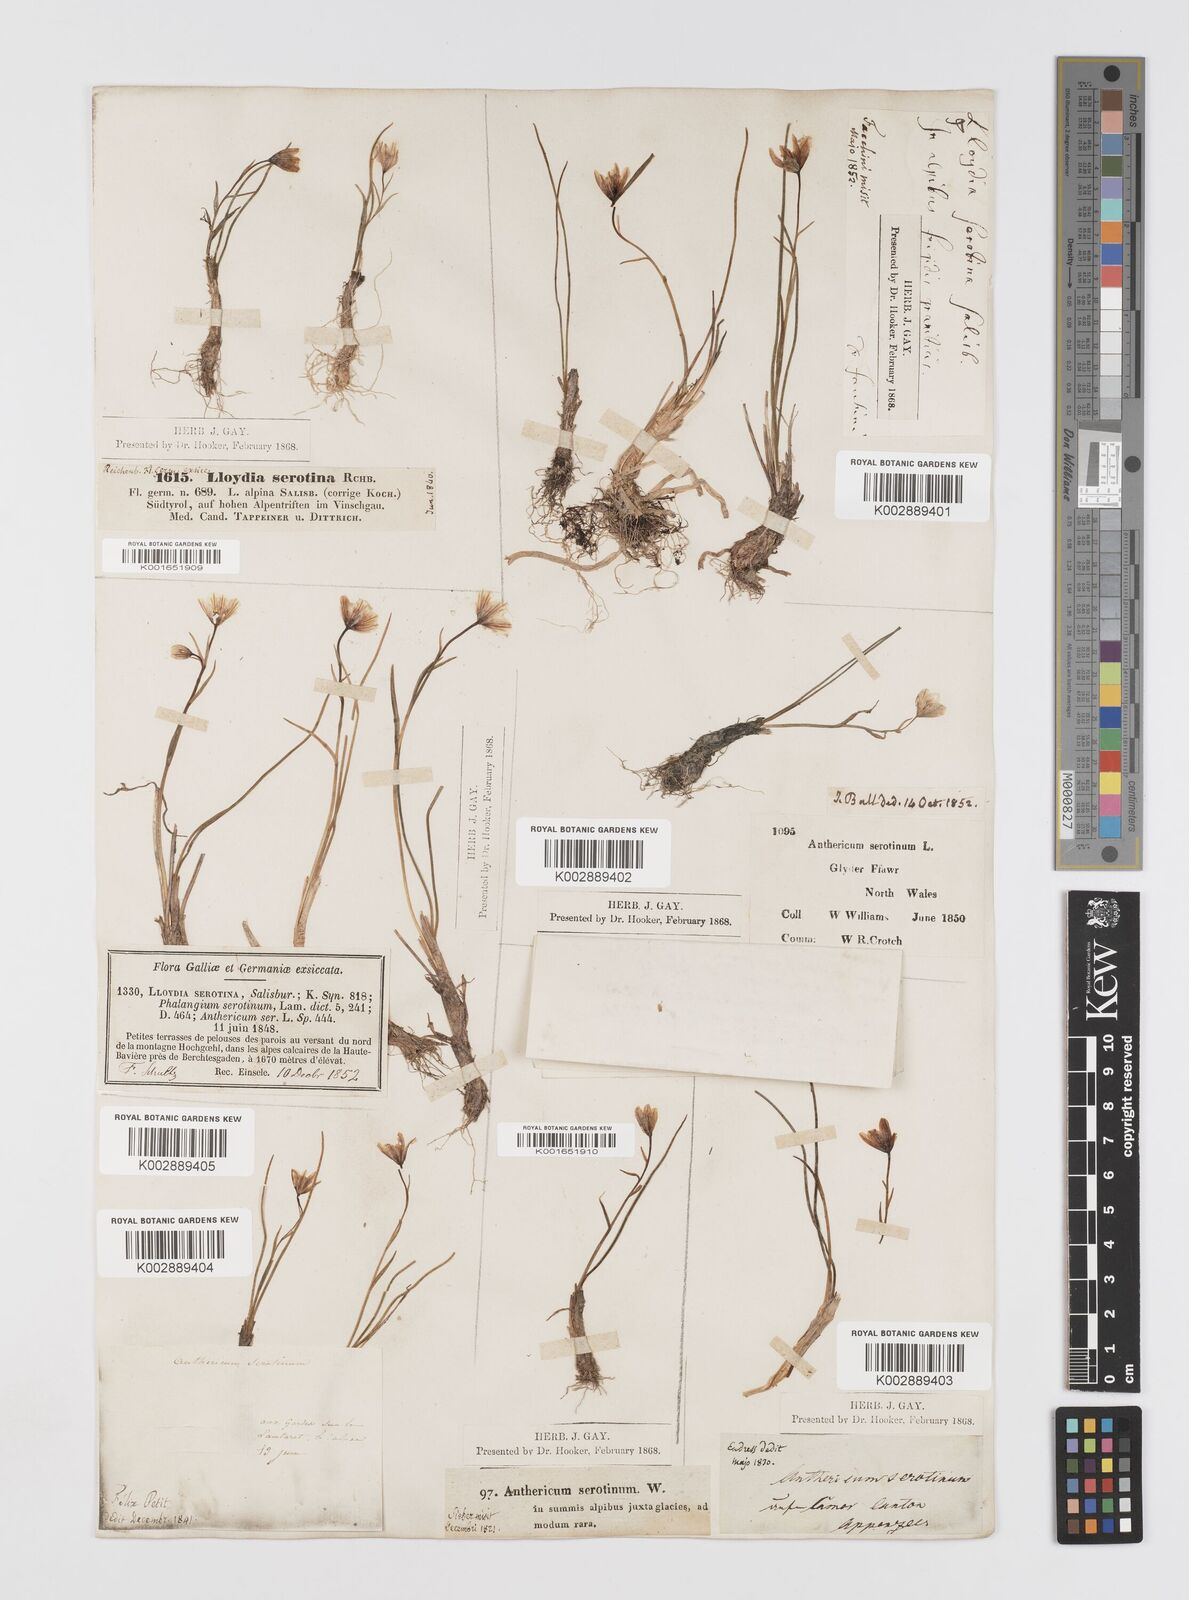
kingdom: Plantae
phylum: Tracheophyta
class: Liliopsida
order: Liliales
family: Liliaceae
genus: Gagea
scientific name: Gagea
